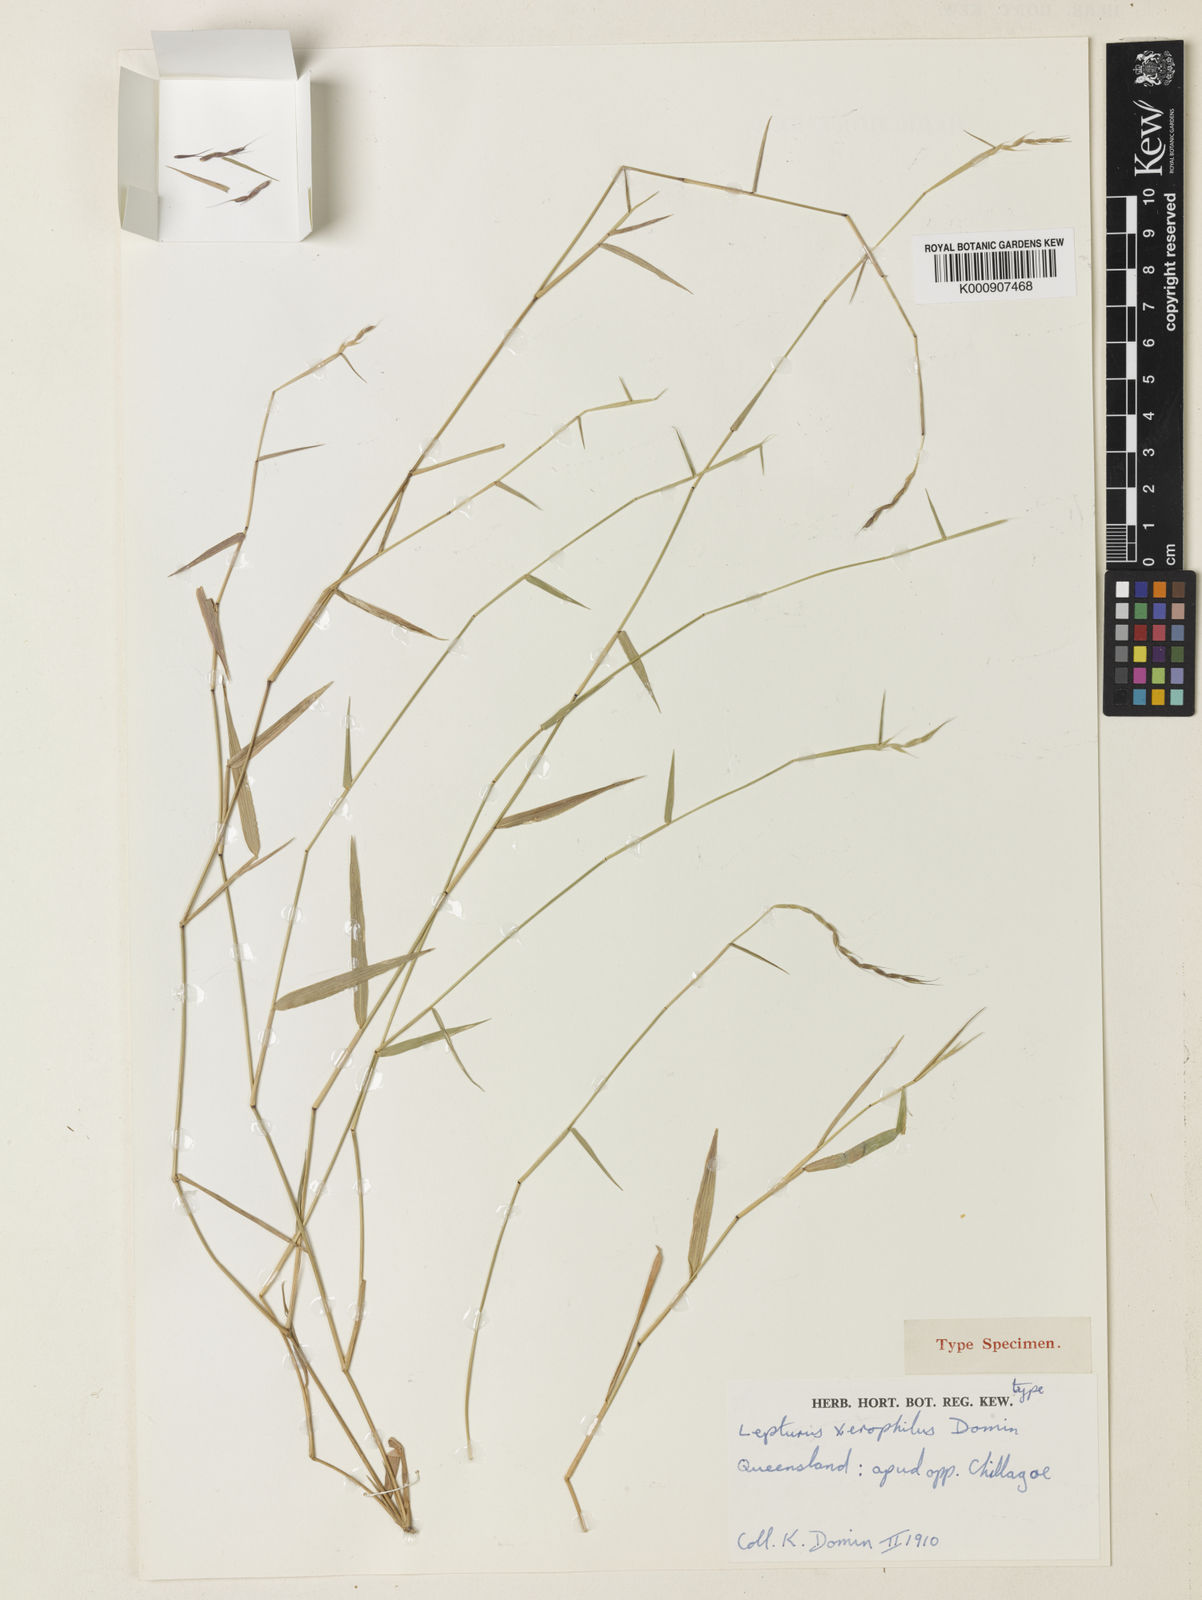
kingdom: Plantae
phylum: Tracheophyta
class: Liliopsida
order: Poales
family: Poaceae
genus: Lepturus
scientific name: Lepturus xerophilus
